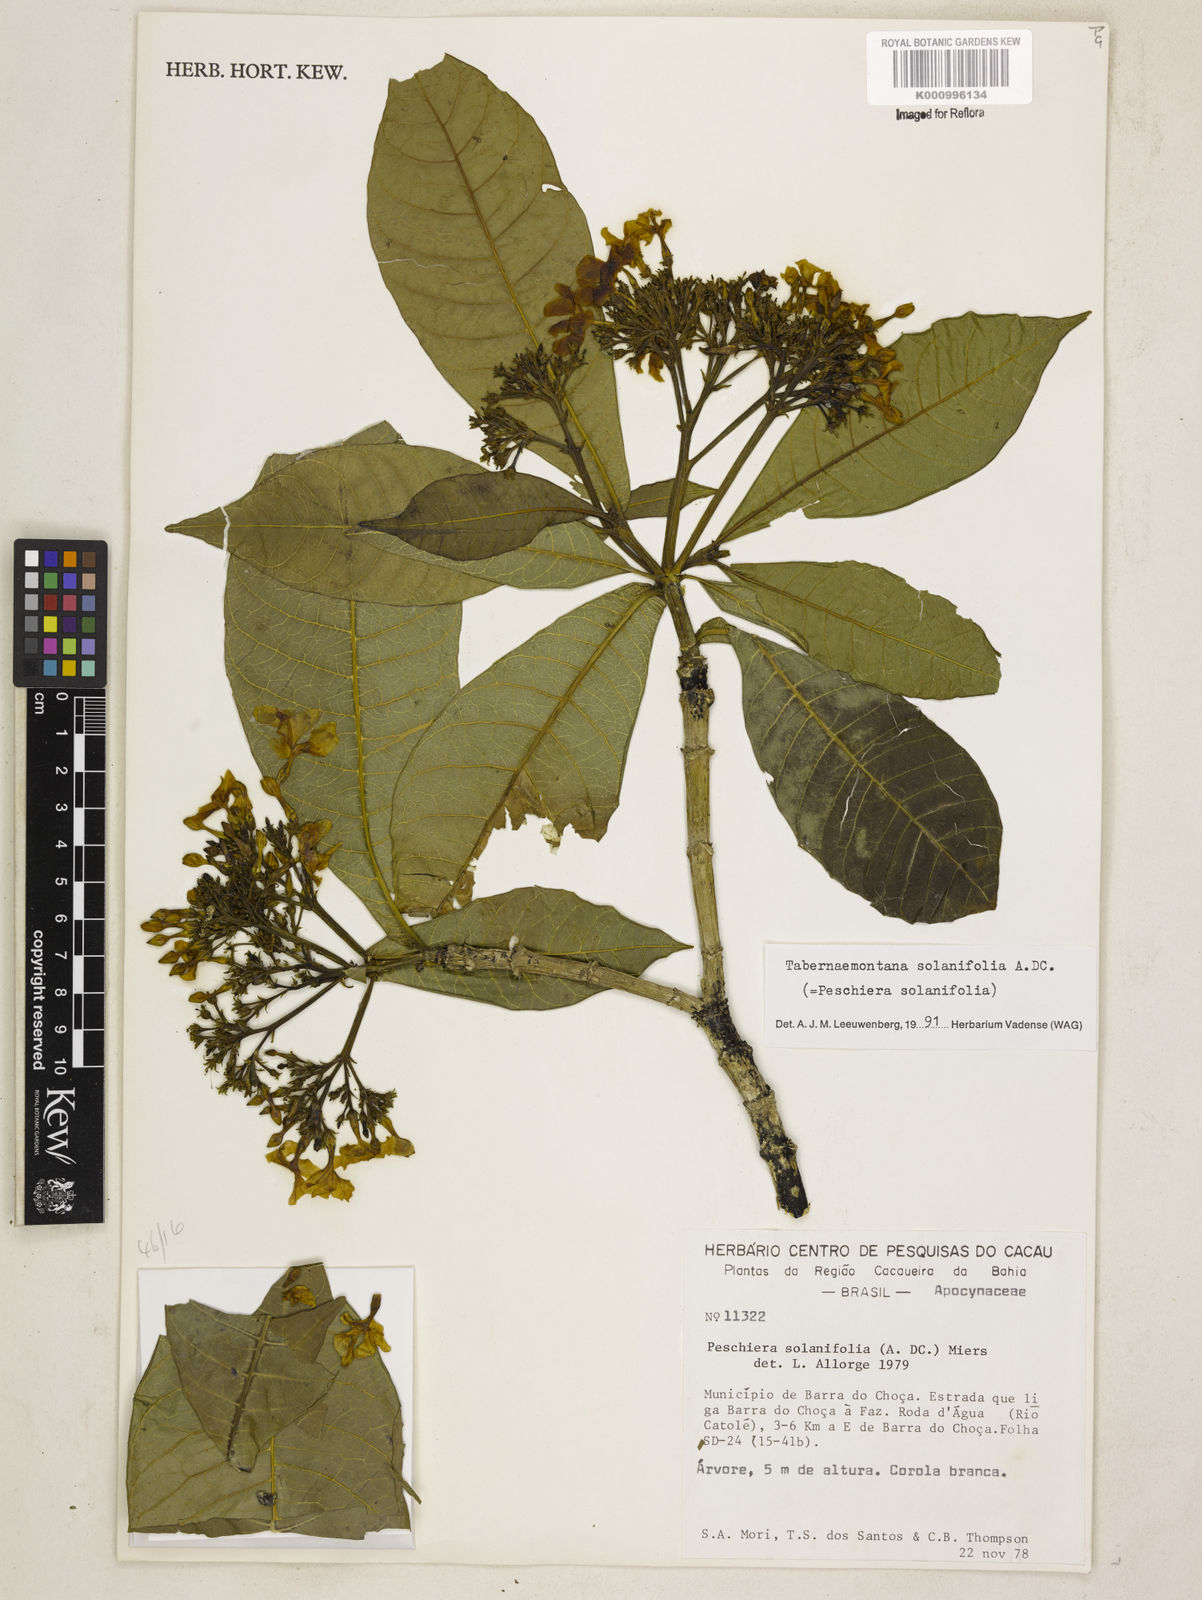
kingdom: Plantae
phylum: Tracheophyta
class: Magnoliopsida
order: Gentianales
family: Apocynaceae
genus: Tabernaemontana
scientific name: Tabernaemontana solanifolia
